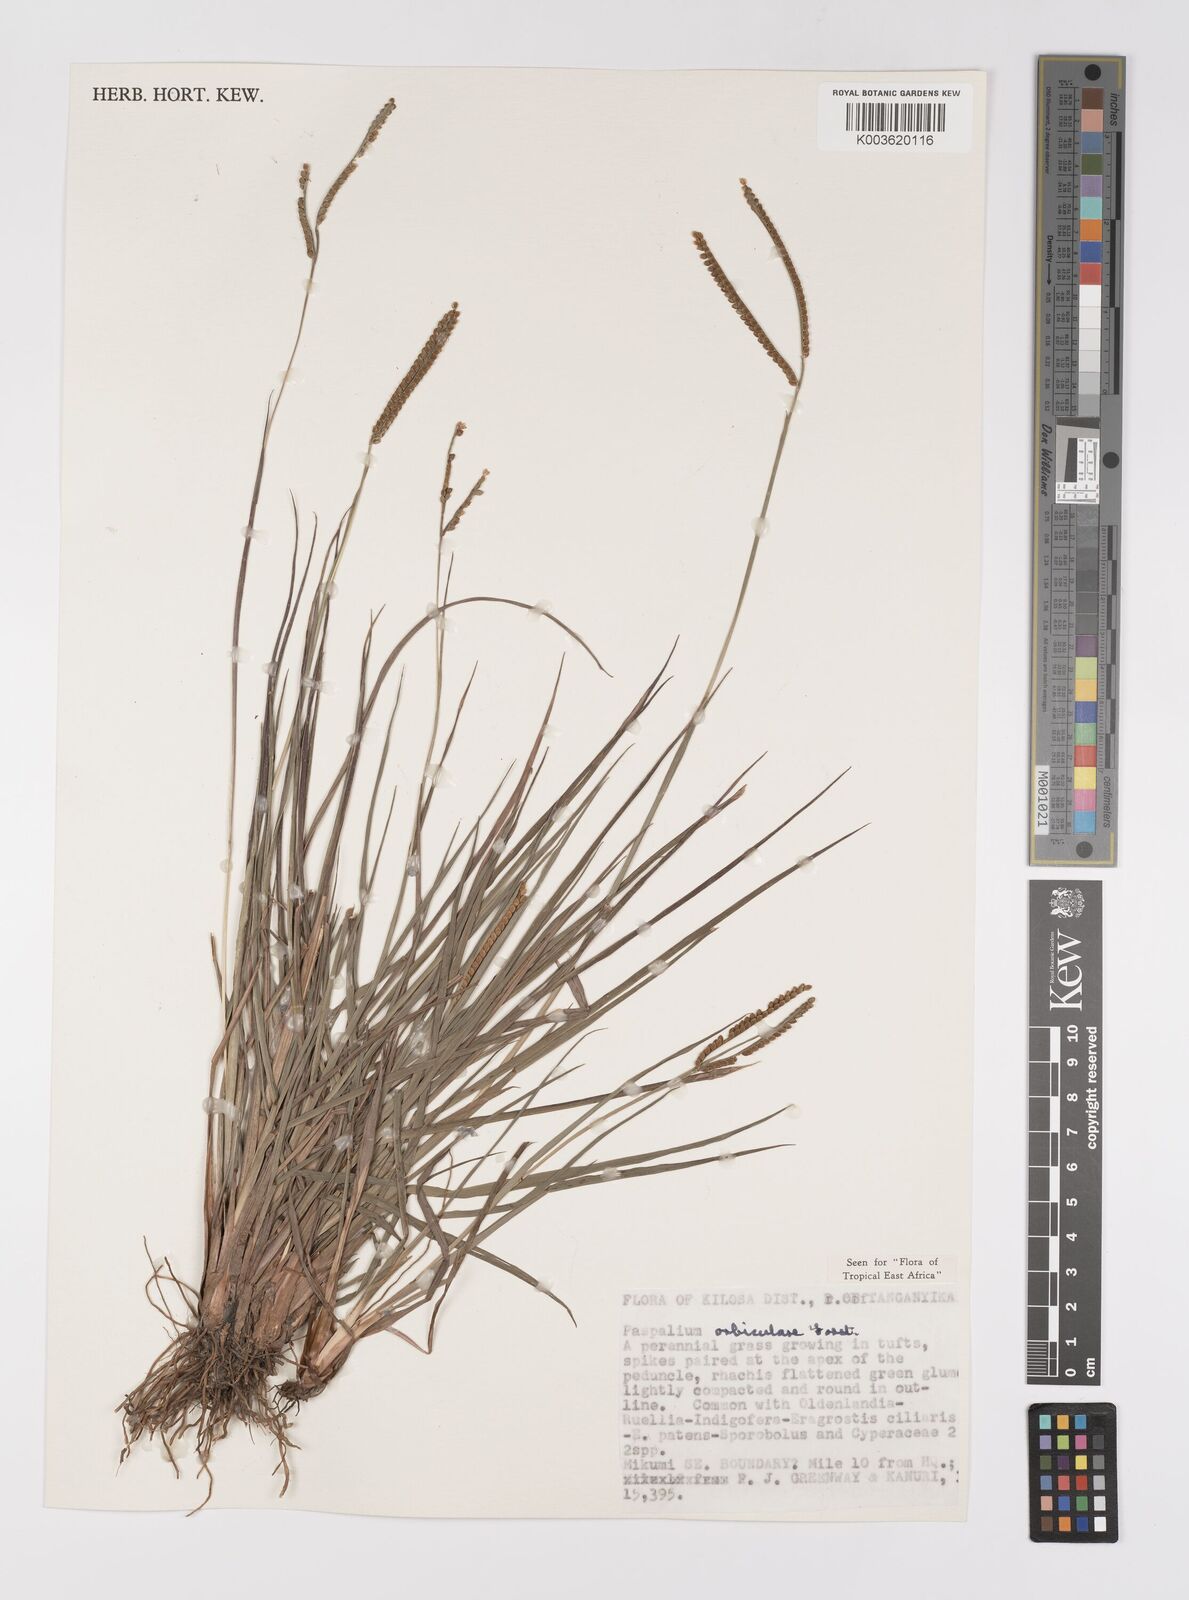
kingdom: Plantae
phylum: Tracheophyta
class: Liliopsida
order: Poales
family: Poaceae
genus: Paspalum
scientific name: Paspalum scrobiculatum
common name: Kodo millet
